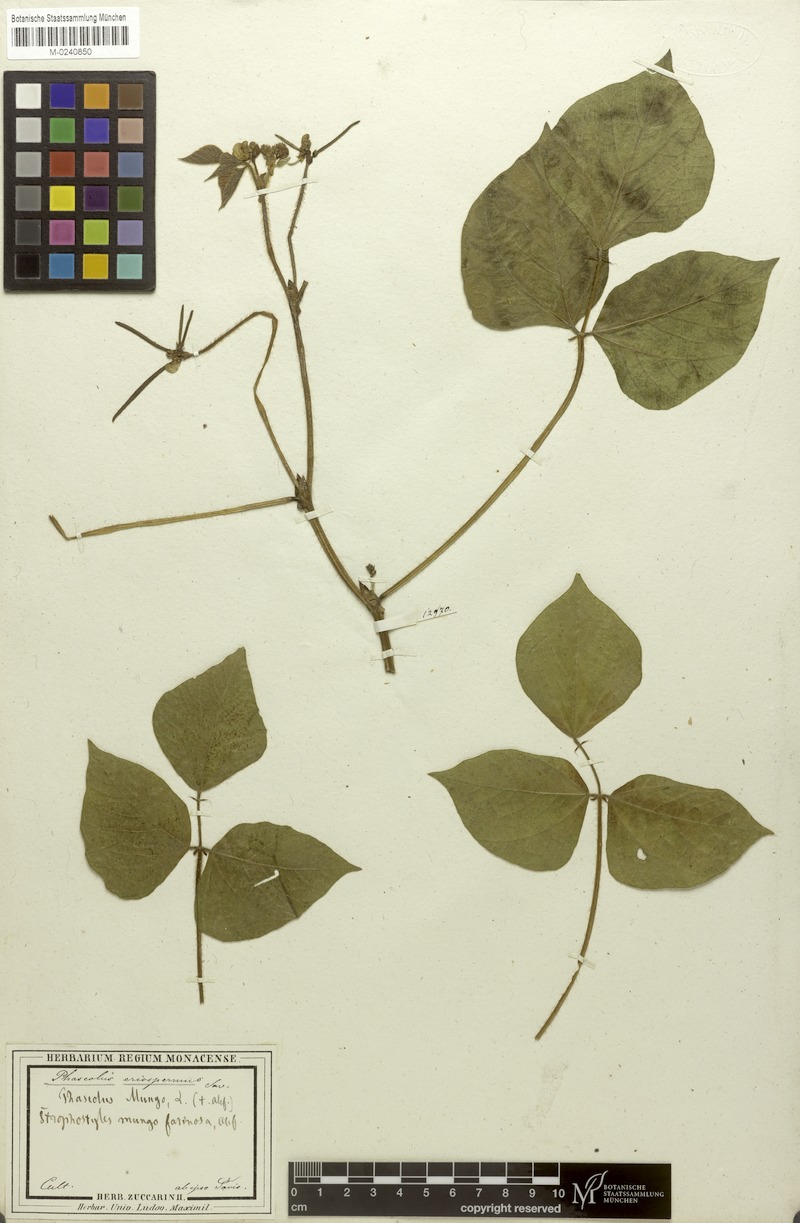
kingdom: Plantae
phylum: Tracheophyta
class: Magnoliopsida
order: Fabales
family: Fabaceae
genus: Vigna
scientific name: Vigna mungo
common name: Black gram
